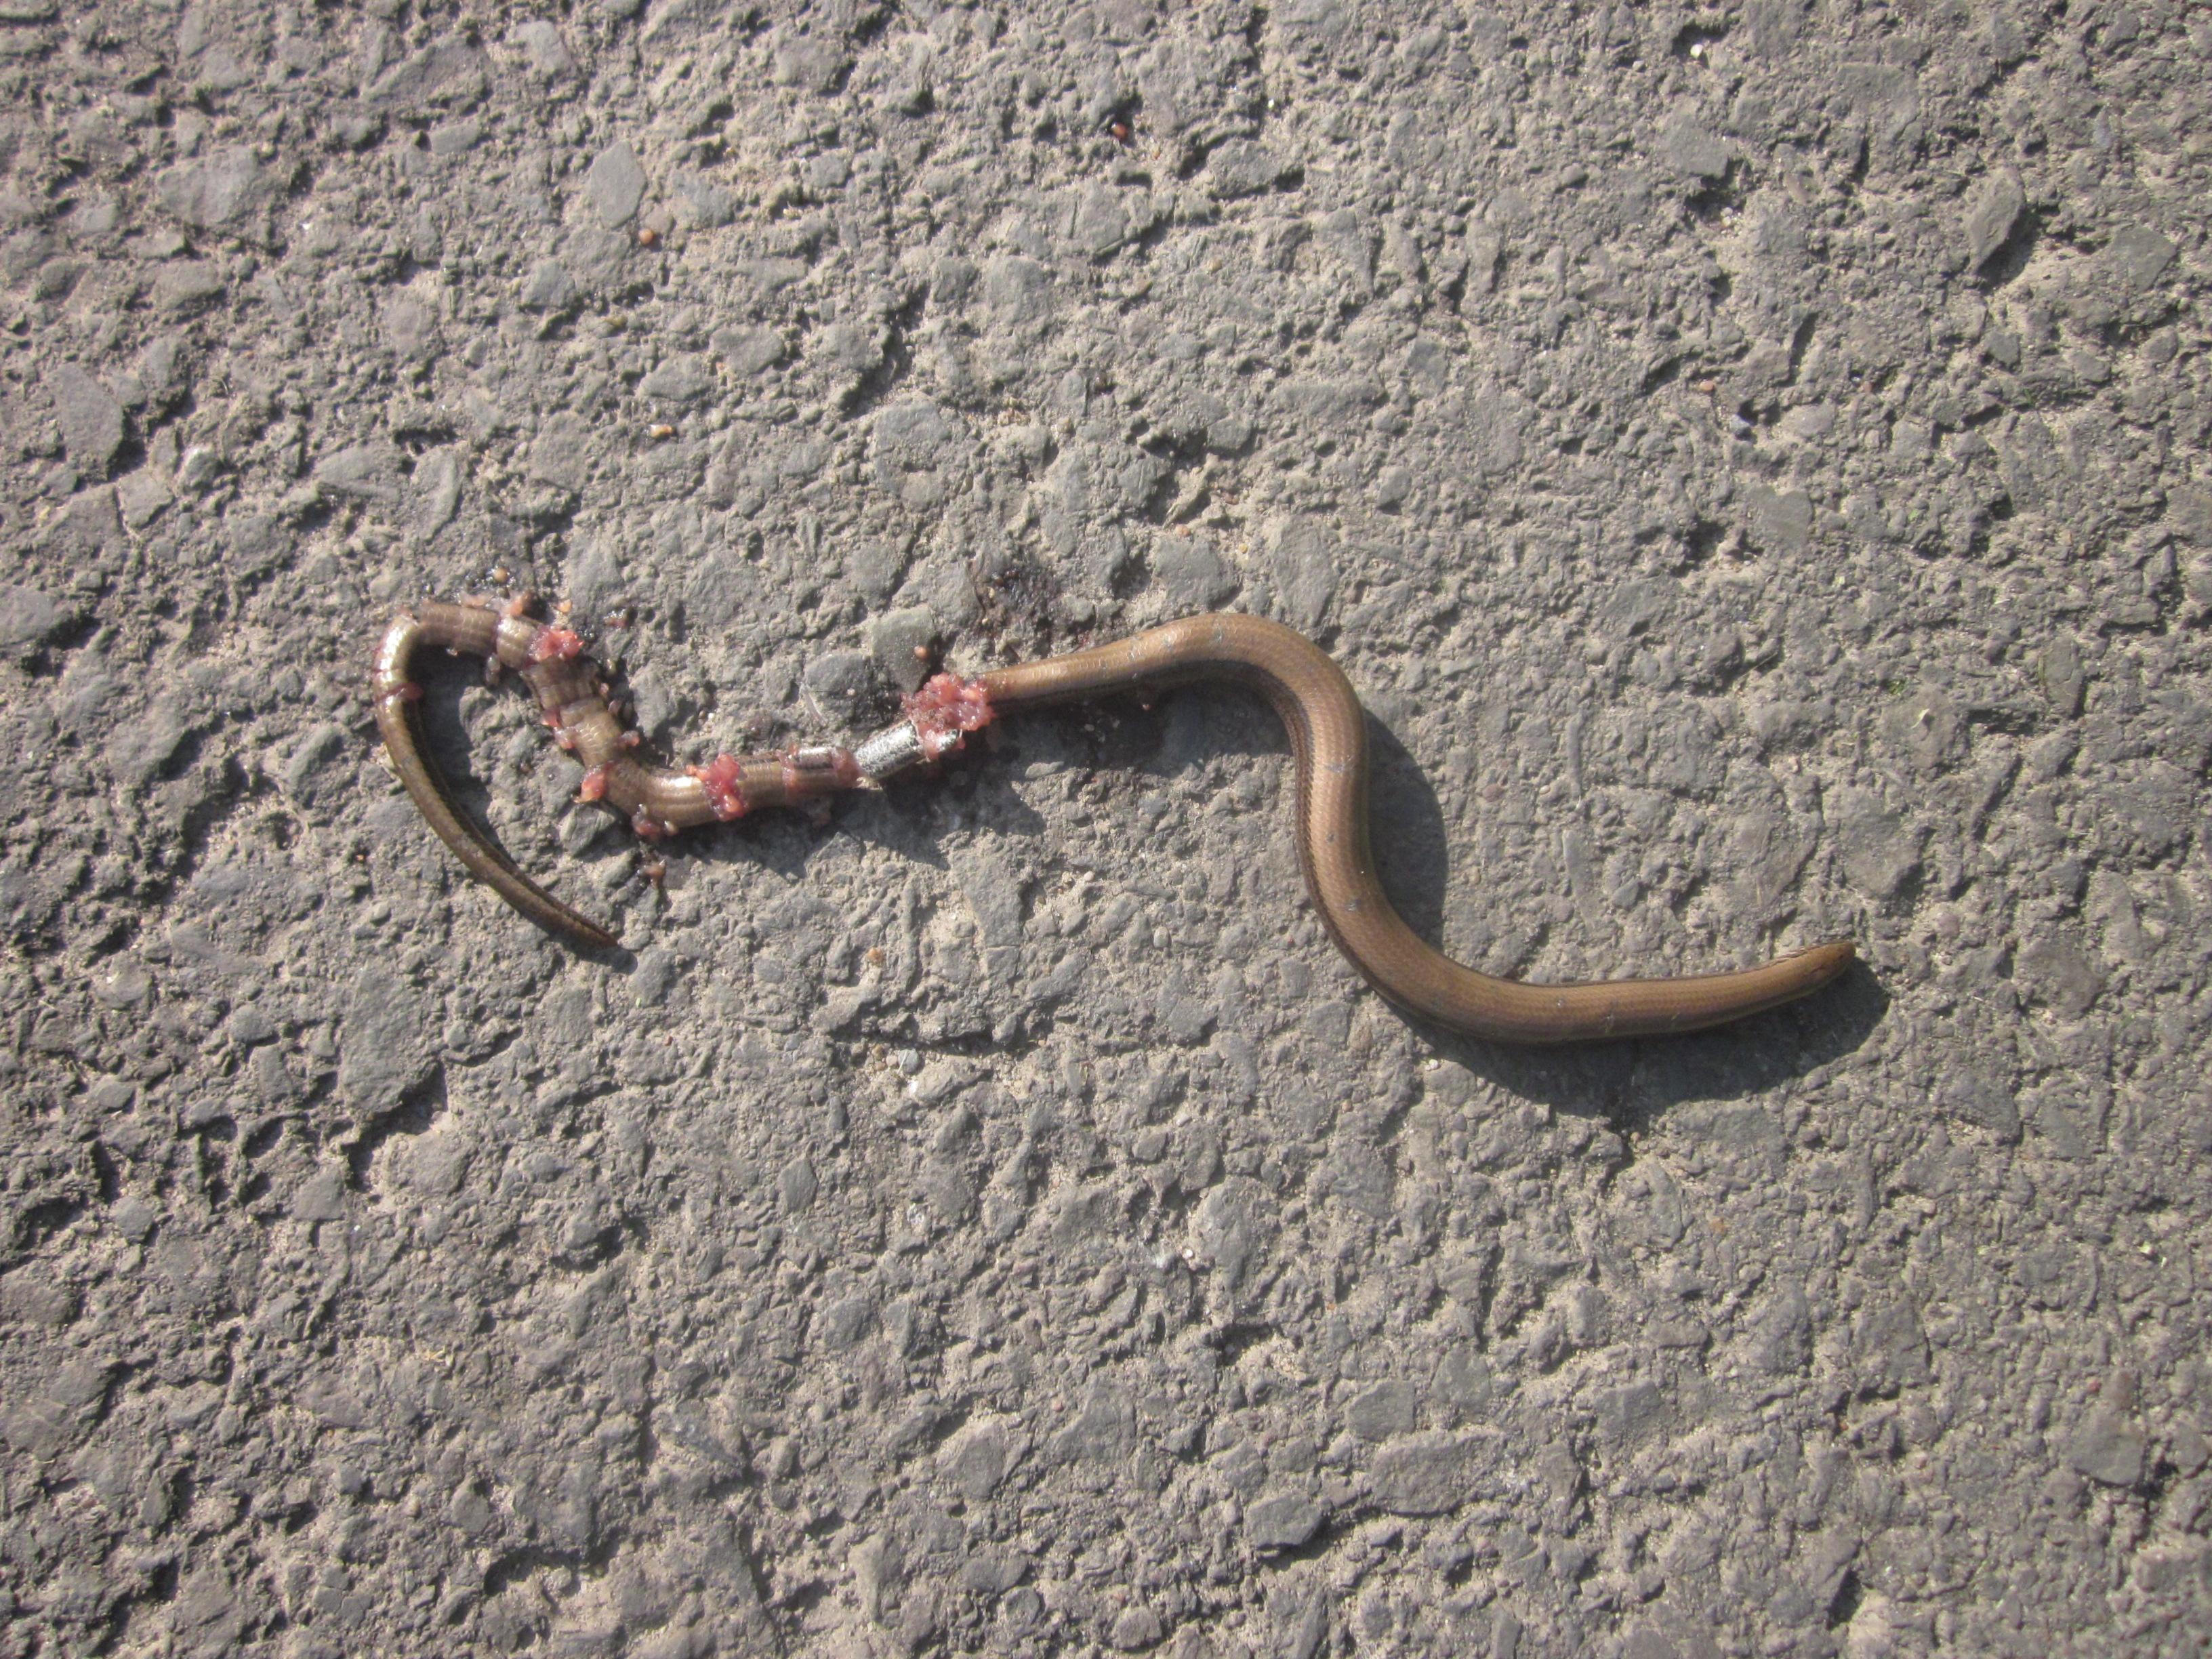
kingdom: Animalia
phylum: Chordata
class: Squamata
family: Anguidae
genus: Anguis
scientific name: Anguis fragilis
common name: Slow worm
